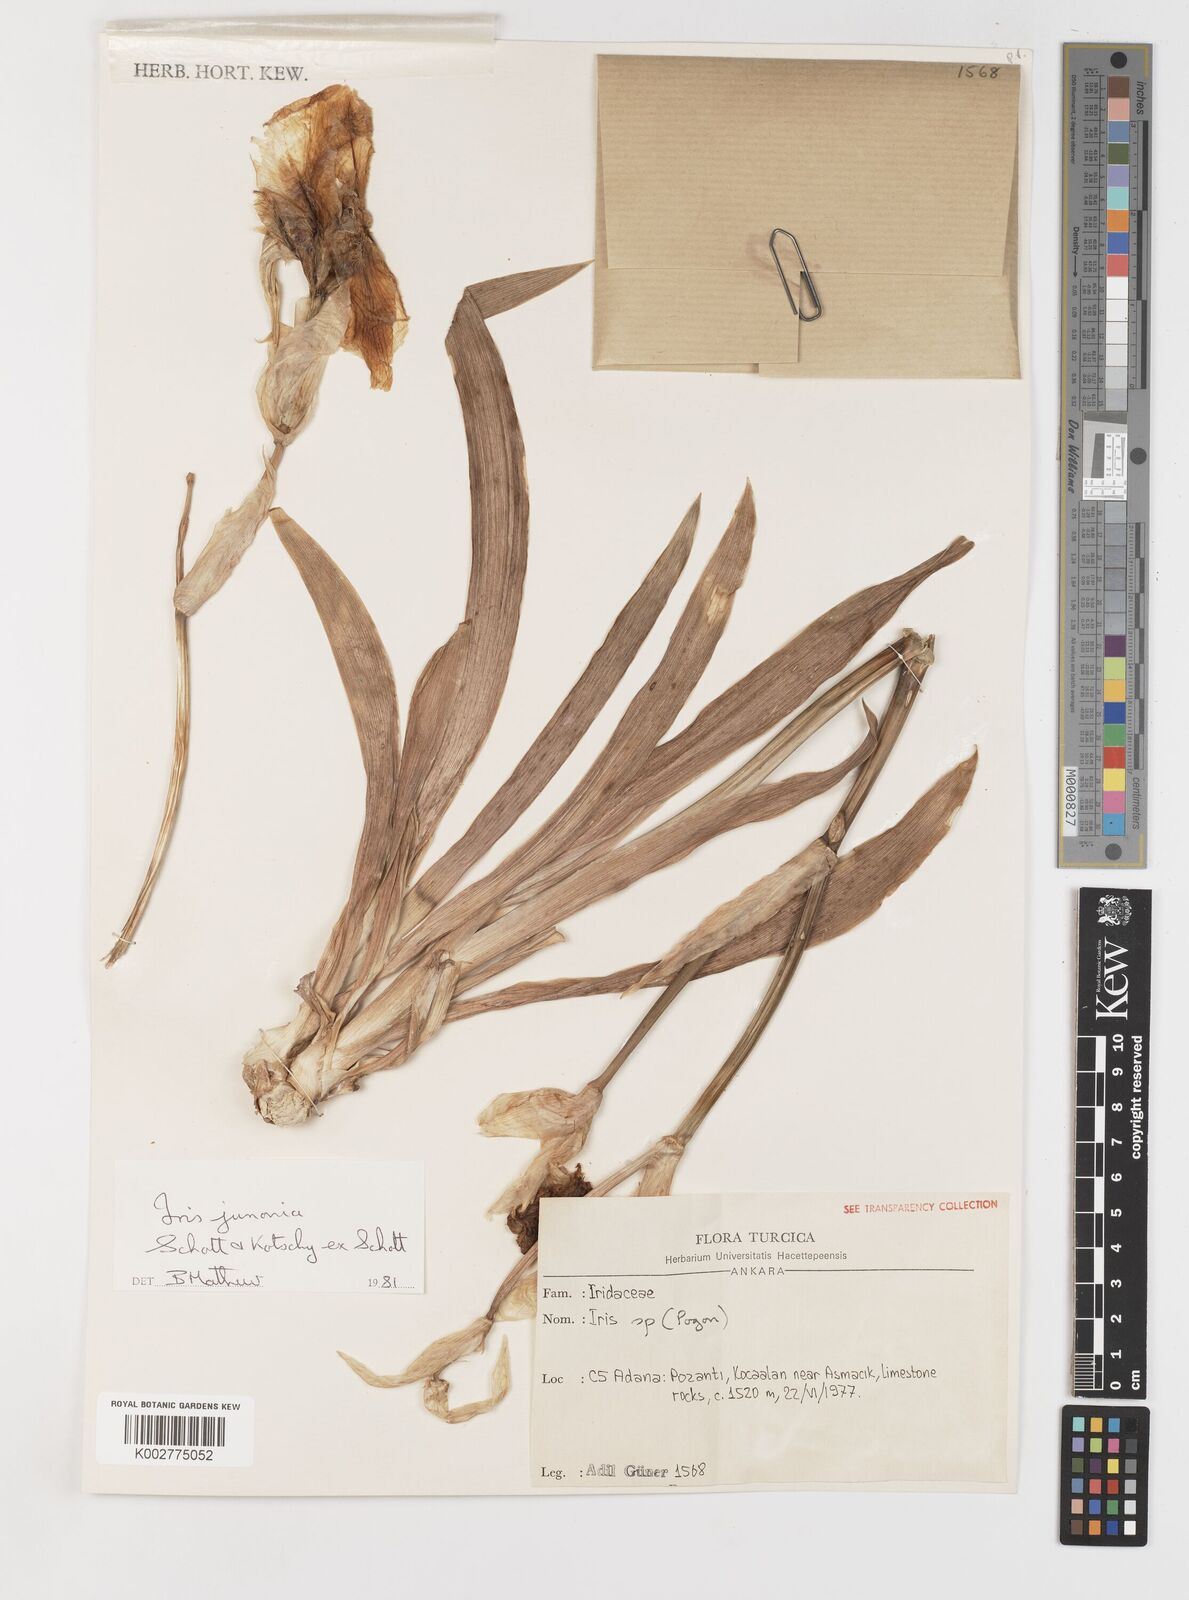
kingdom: Plantae
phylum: Tracheophyta
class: Liliopsida
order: Asparagales
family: Iridaceae
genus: Iris
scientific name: Iris junonia
